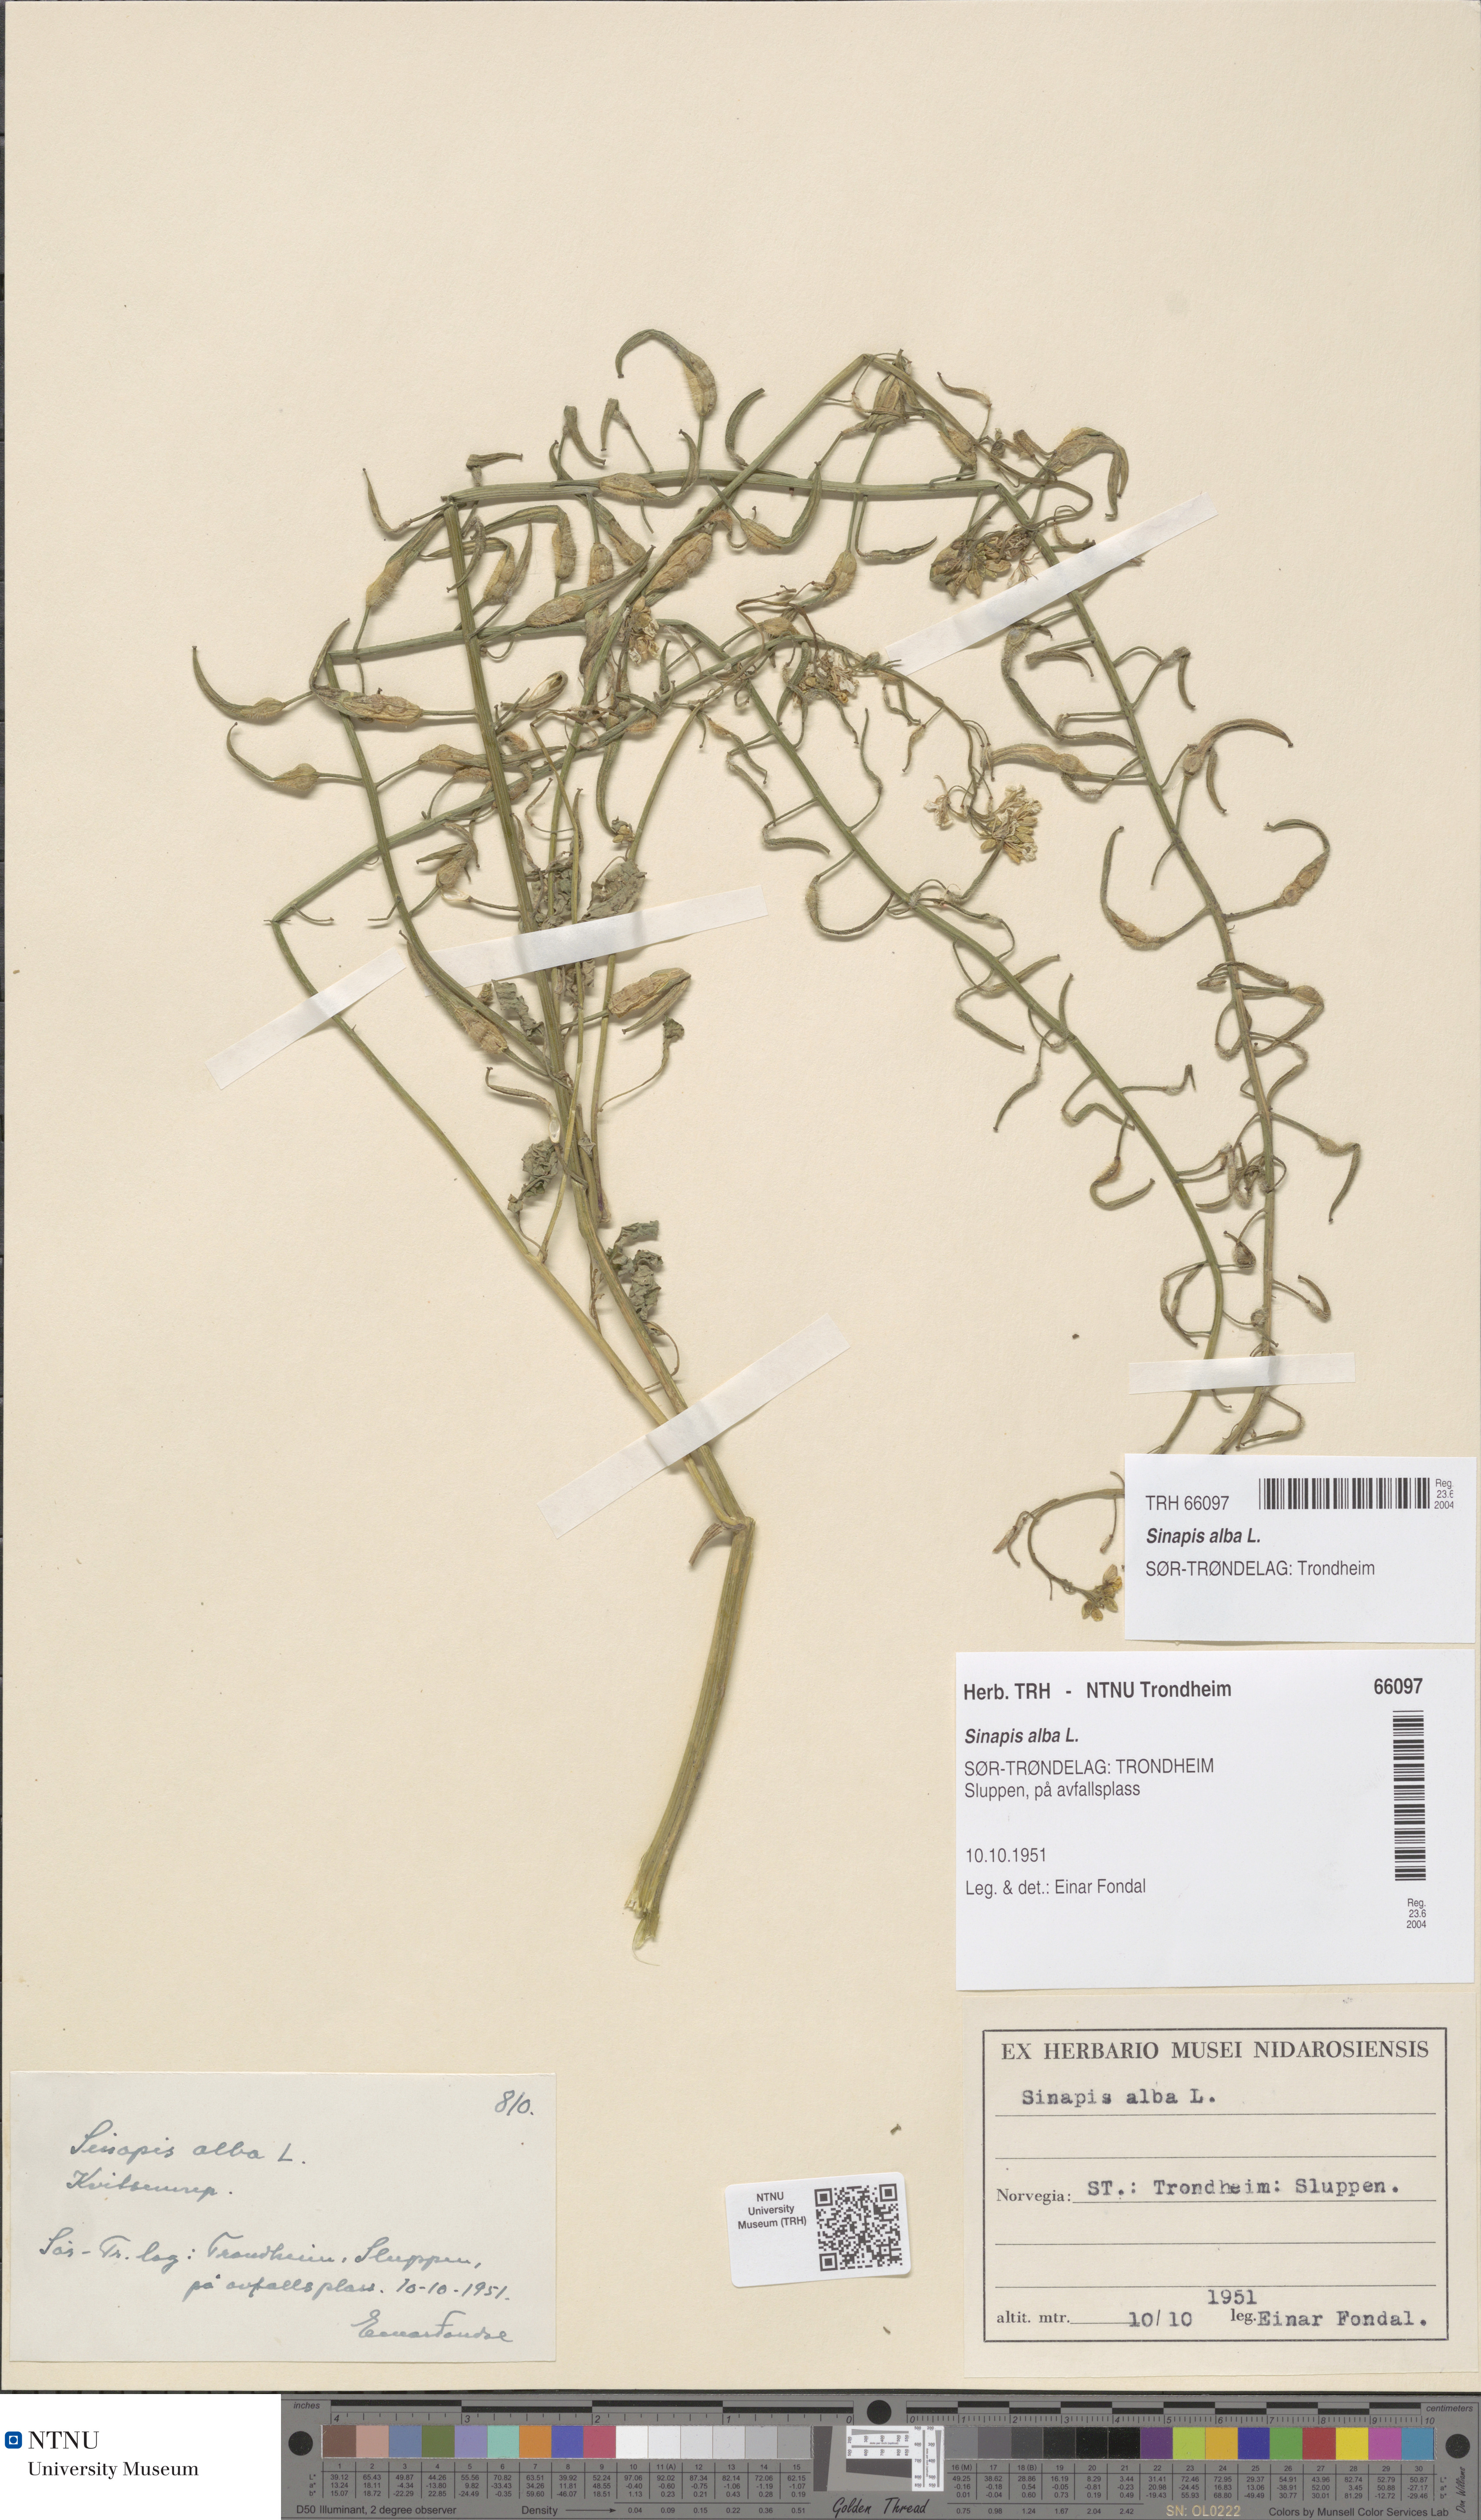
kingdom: Plantae
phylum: Tracheophyta
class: Magnoliopsida
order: Brassicales
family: Brassicaceae
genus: Sinapis
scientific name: Sinapis alba
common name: White mustard
